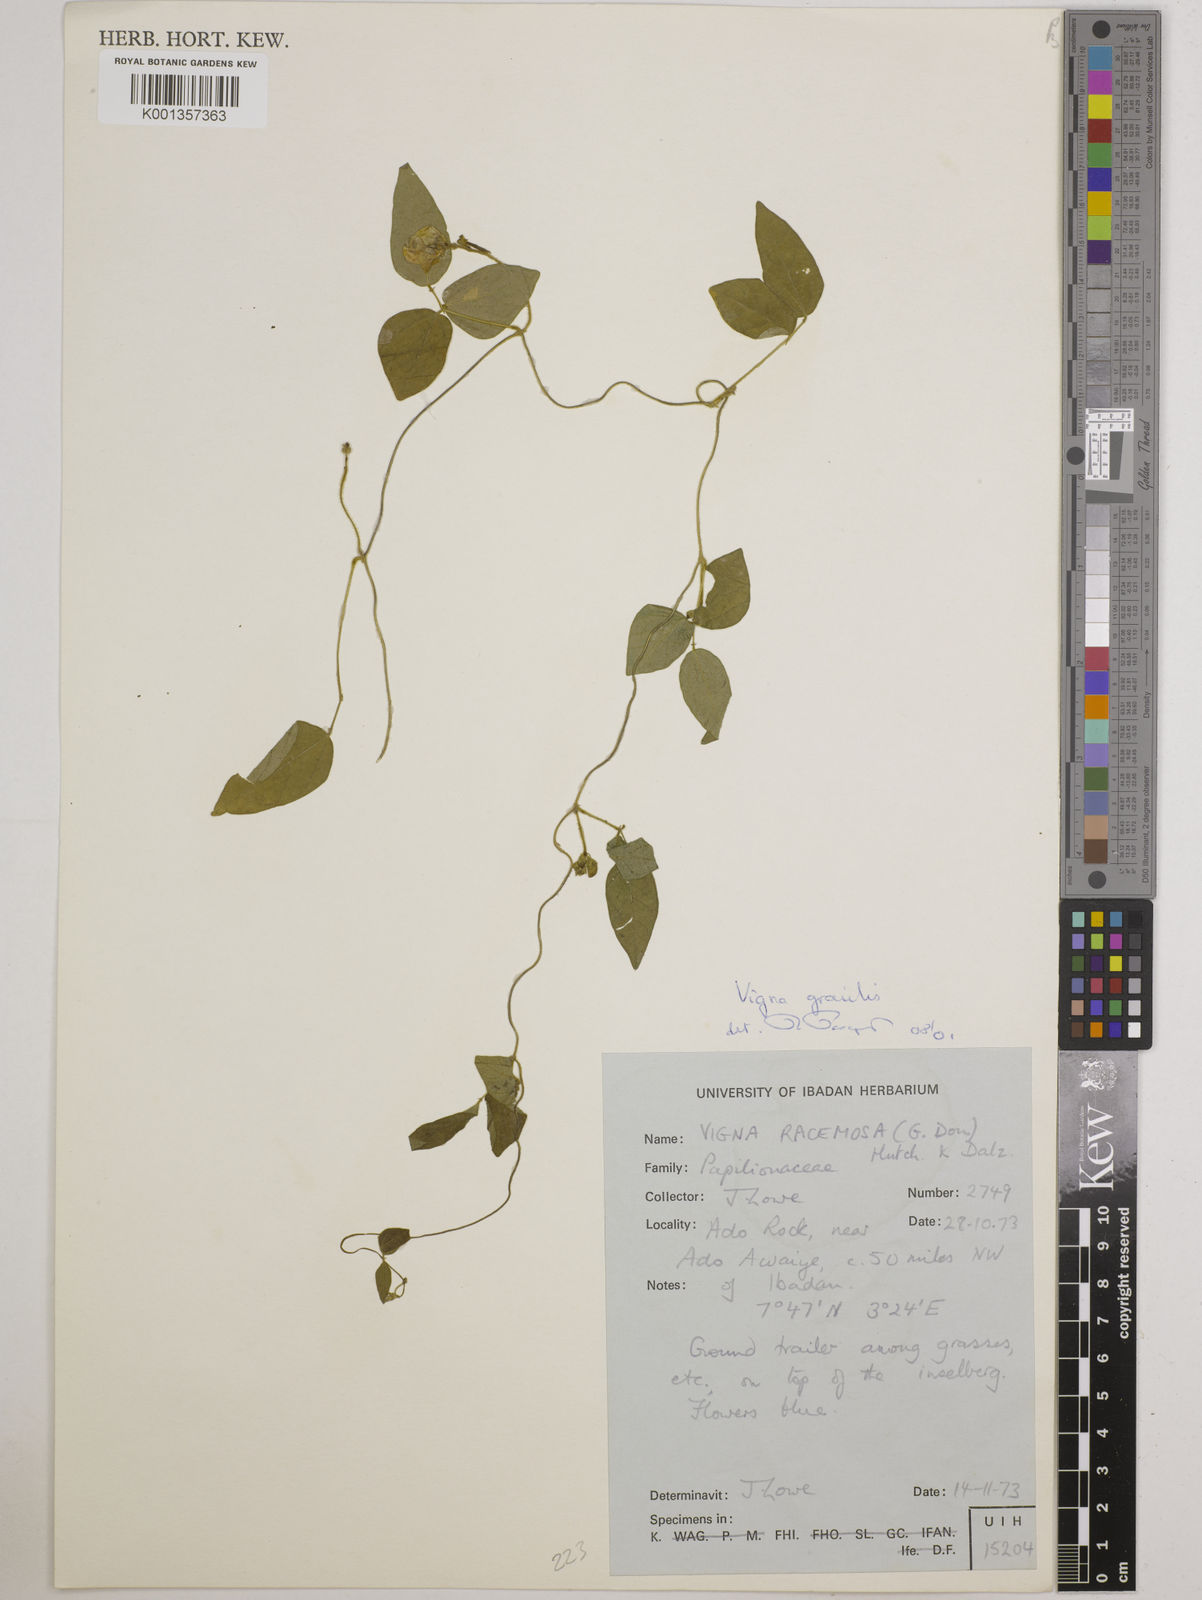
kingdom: Plantae
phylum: Tracheophyta
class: Magnoliopsida
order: Fabales
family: Fabaceae
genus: Vigna
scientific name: Vigna gracilis
